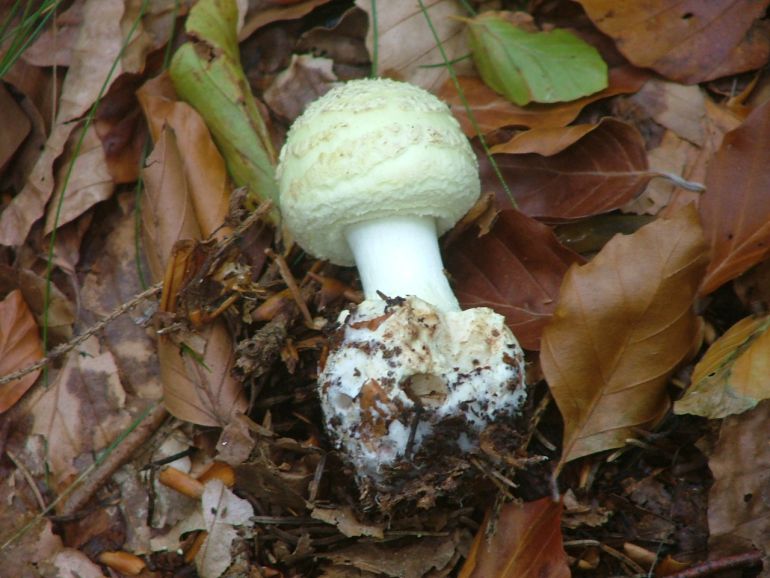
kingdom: Fungi
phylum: Basidiomycota
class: Agaricomycetes
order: Agaricales
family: Amanitaceae
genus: Amanita
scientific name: Amanita citrina
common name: kugleknoldet fluesvamp
